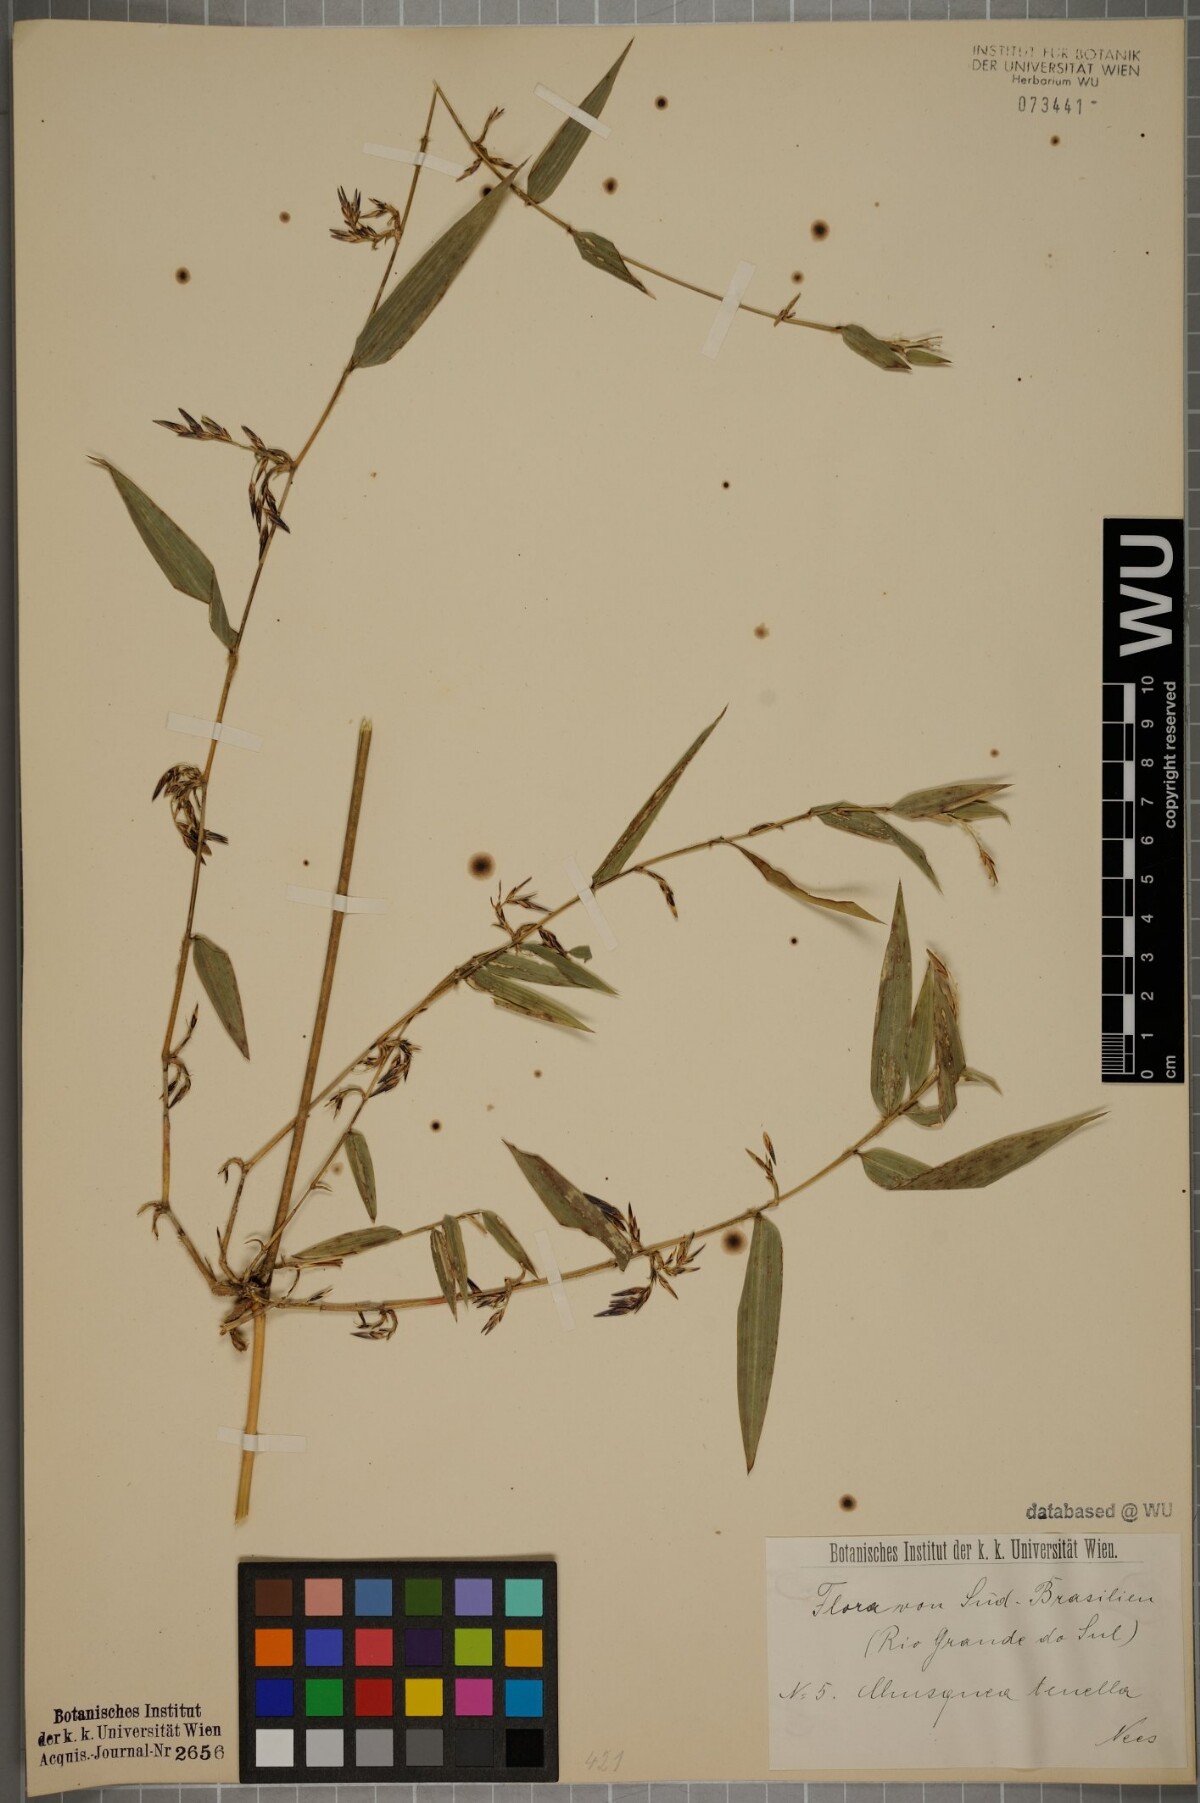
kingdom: Plantae
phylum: Tracheophyta
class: Liliopsida
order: Poales
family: Poaceae
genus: Chusquea
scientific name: Chusquea tenella
